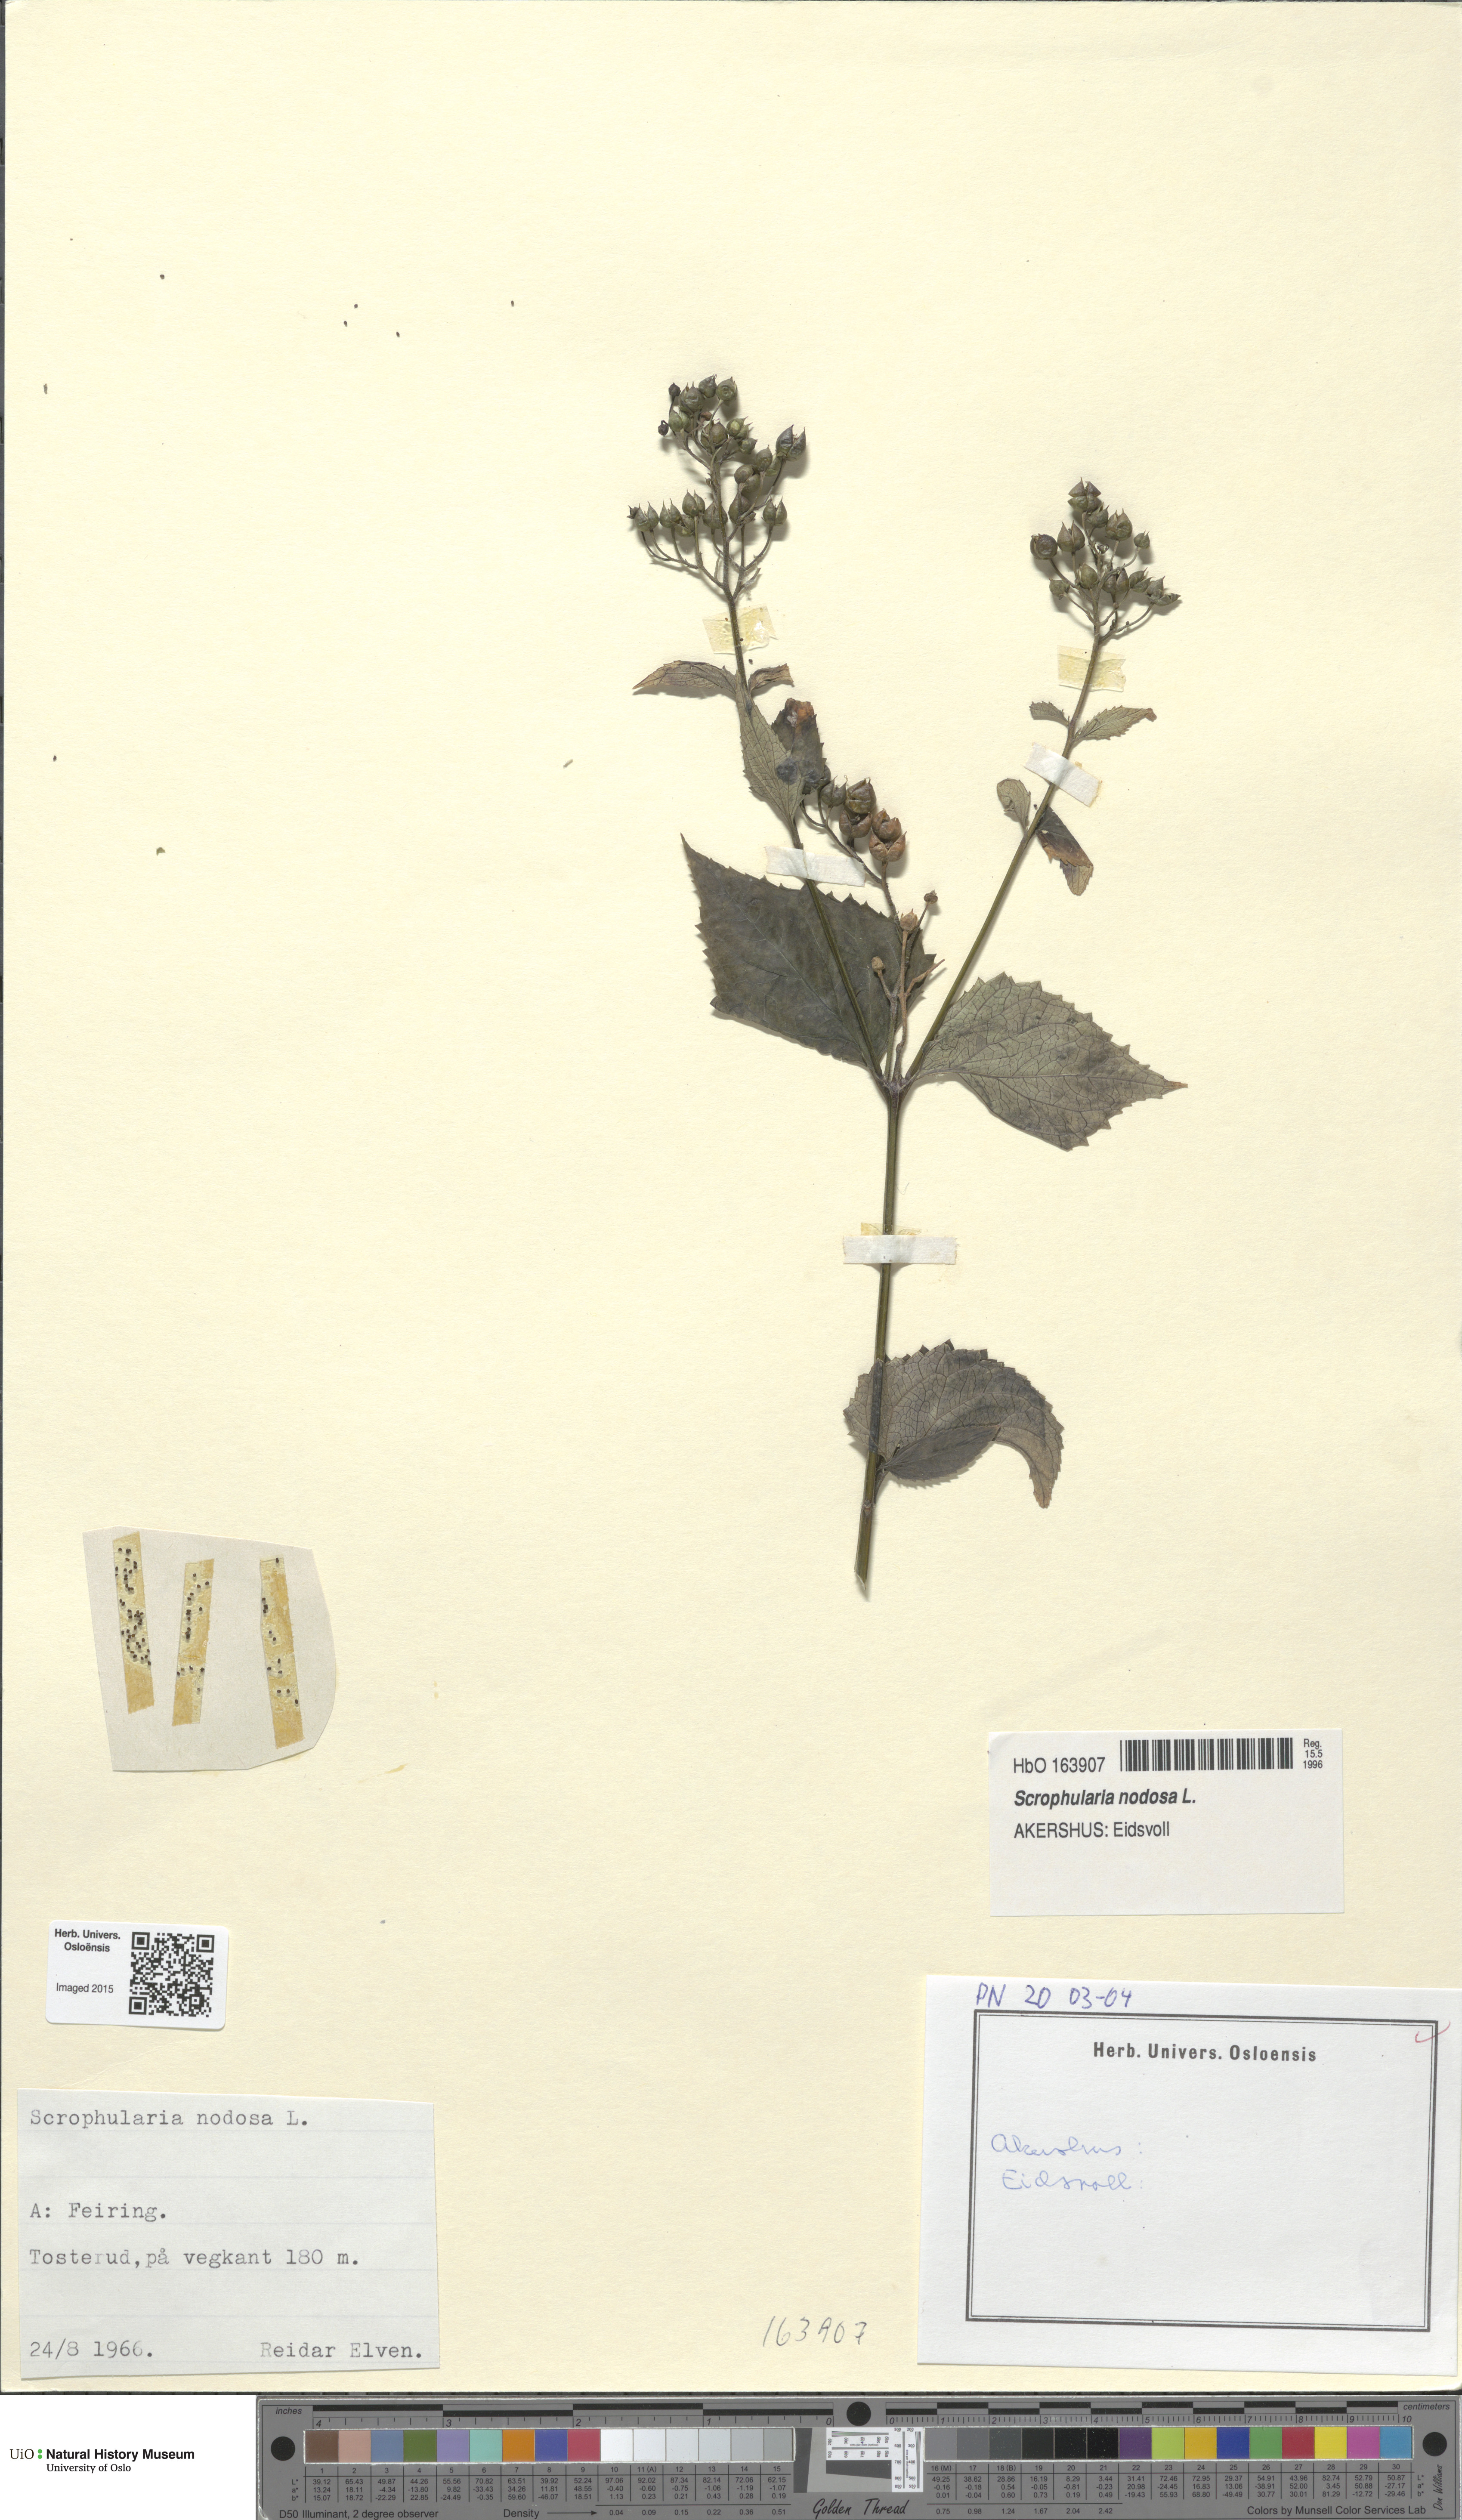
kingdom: Plantae
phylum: Tracheophyta
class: Magnoliopsida
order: Lamiales
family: Scrophulariaceae
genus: Scrophularia
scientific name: Scrophularia nodosa
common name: Common figwort
